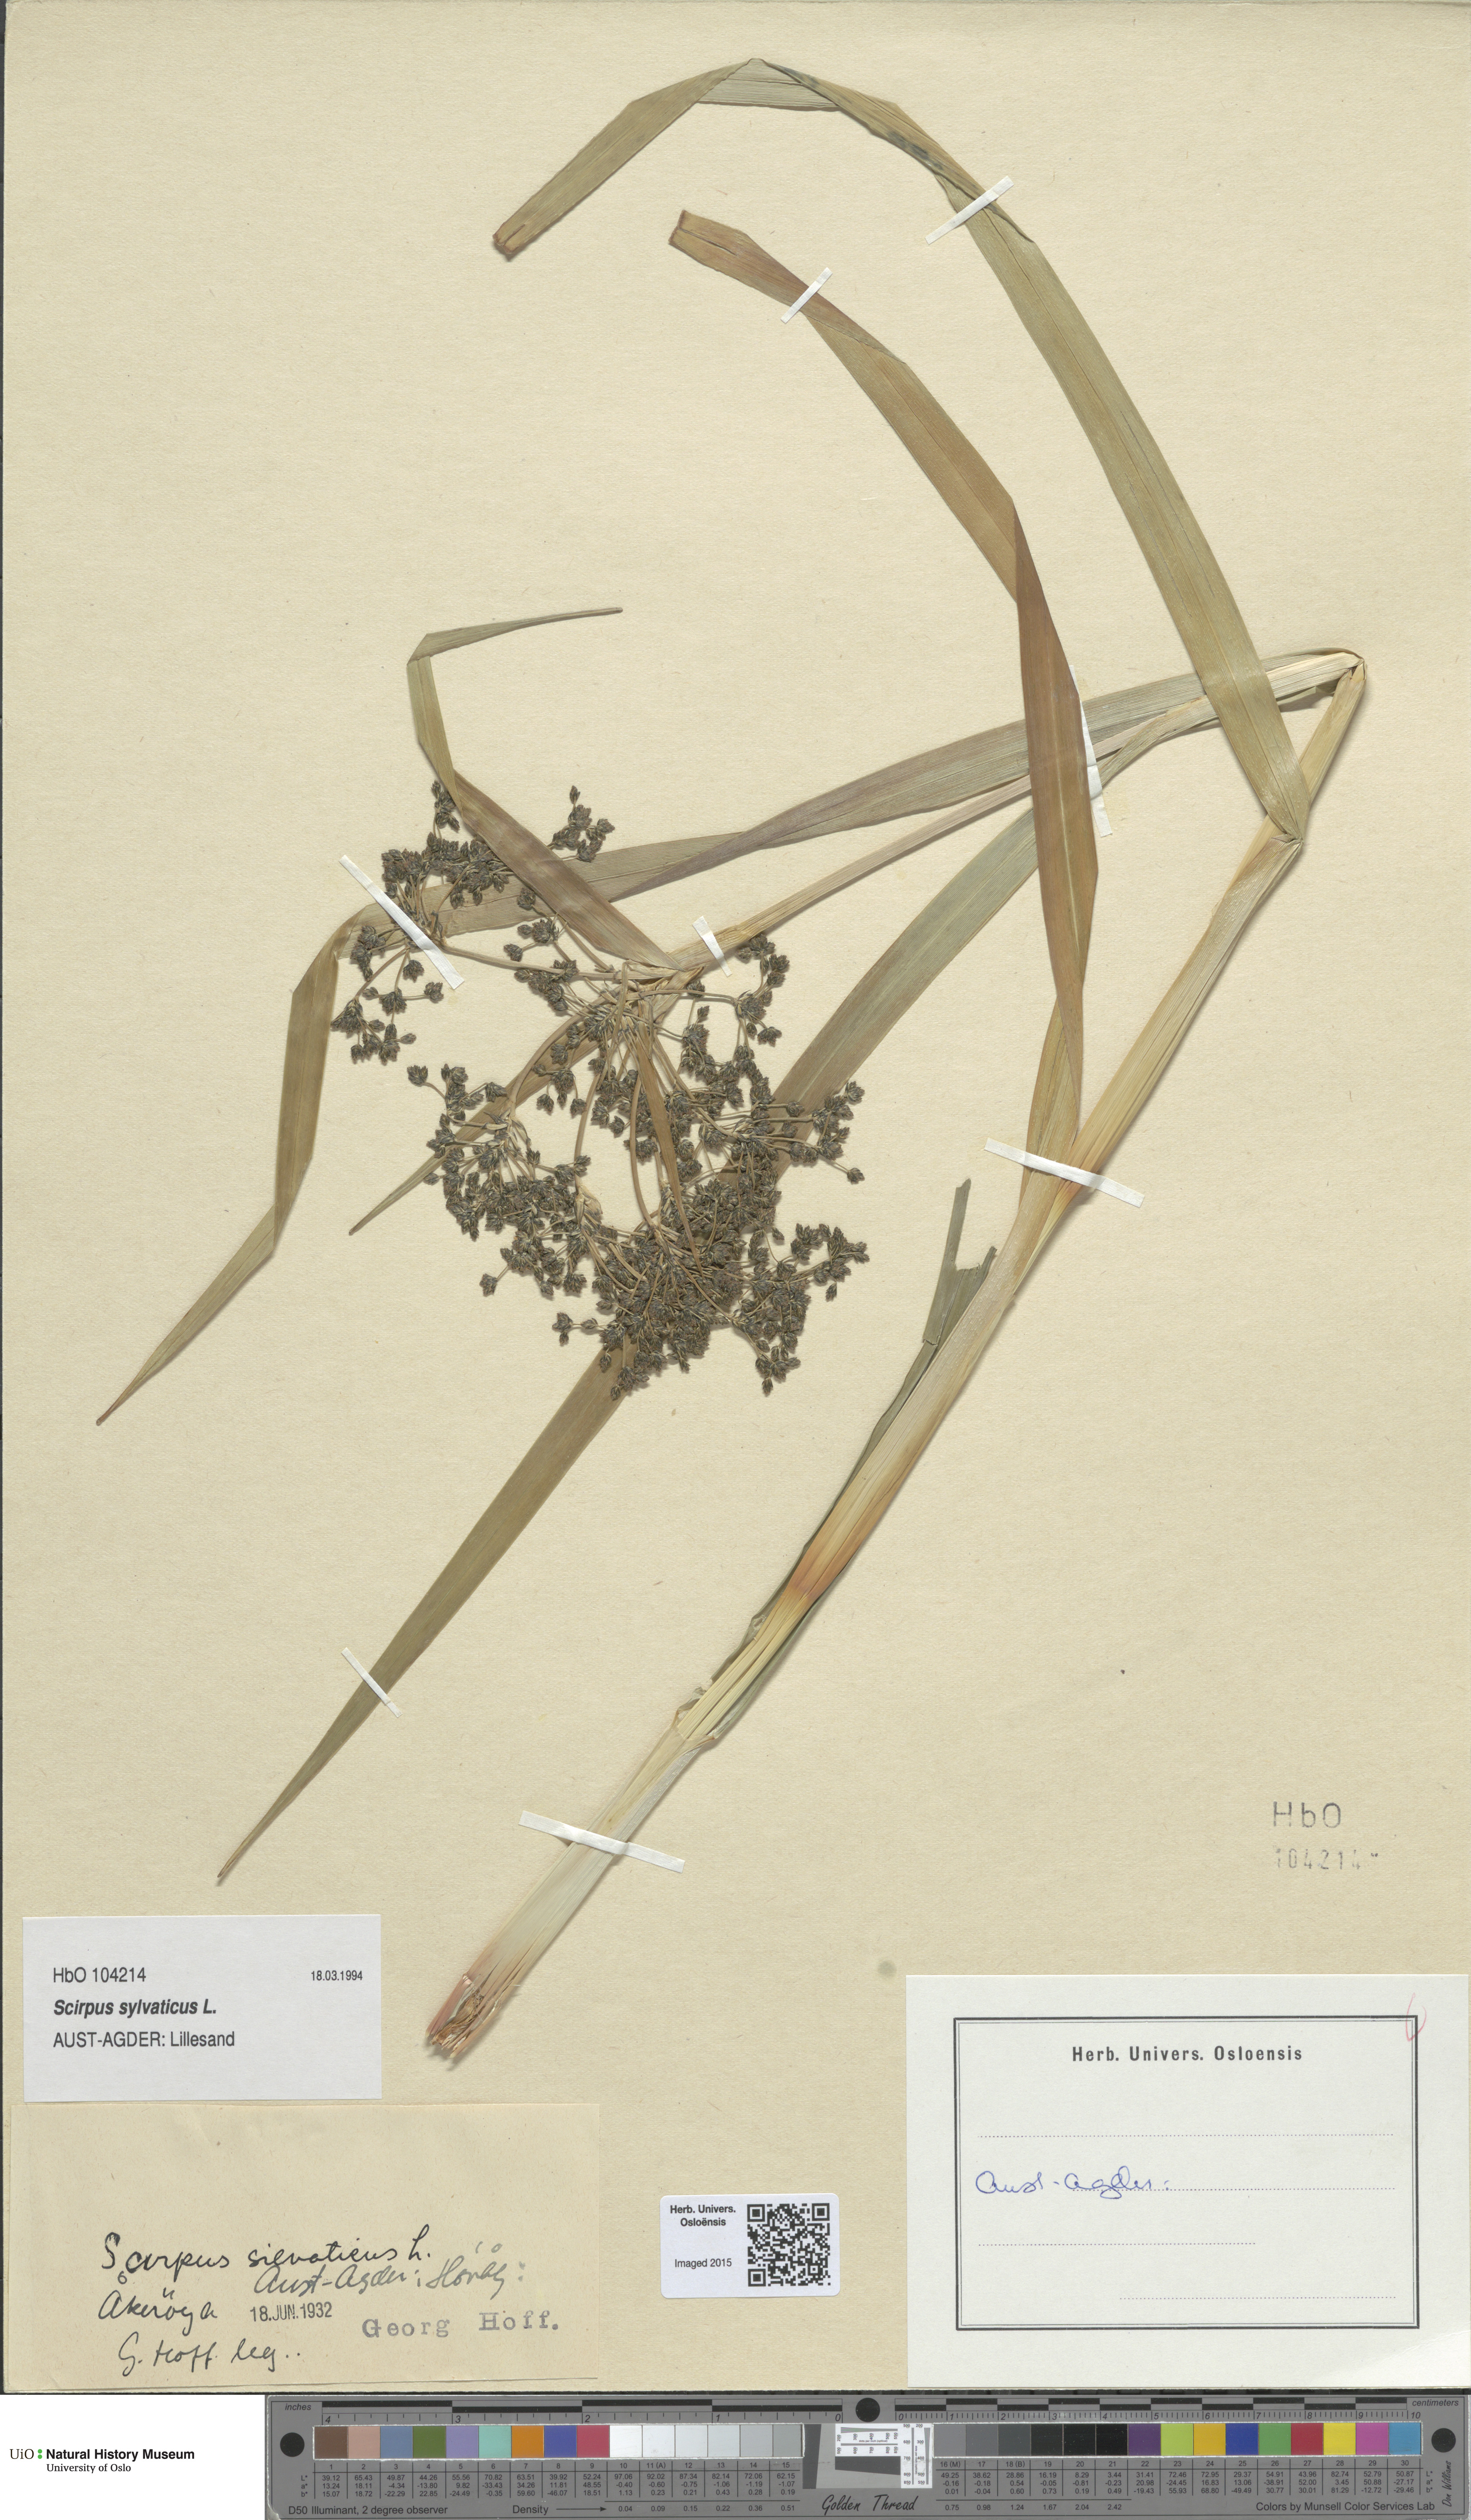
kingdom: Plantae
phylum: Tracheophyta
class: Liliopsida
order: Poales
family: Cyperaceae
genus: Scirpus
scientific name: Scirpus sylvaticus
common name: Wood club-rush
